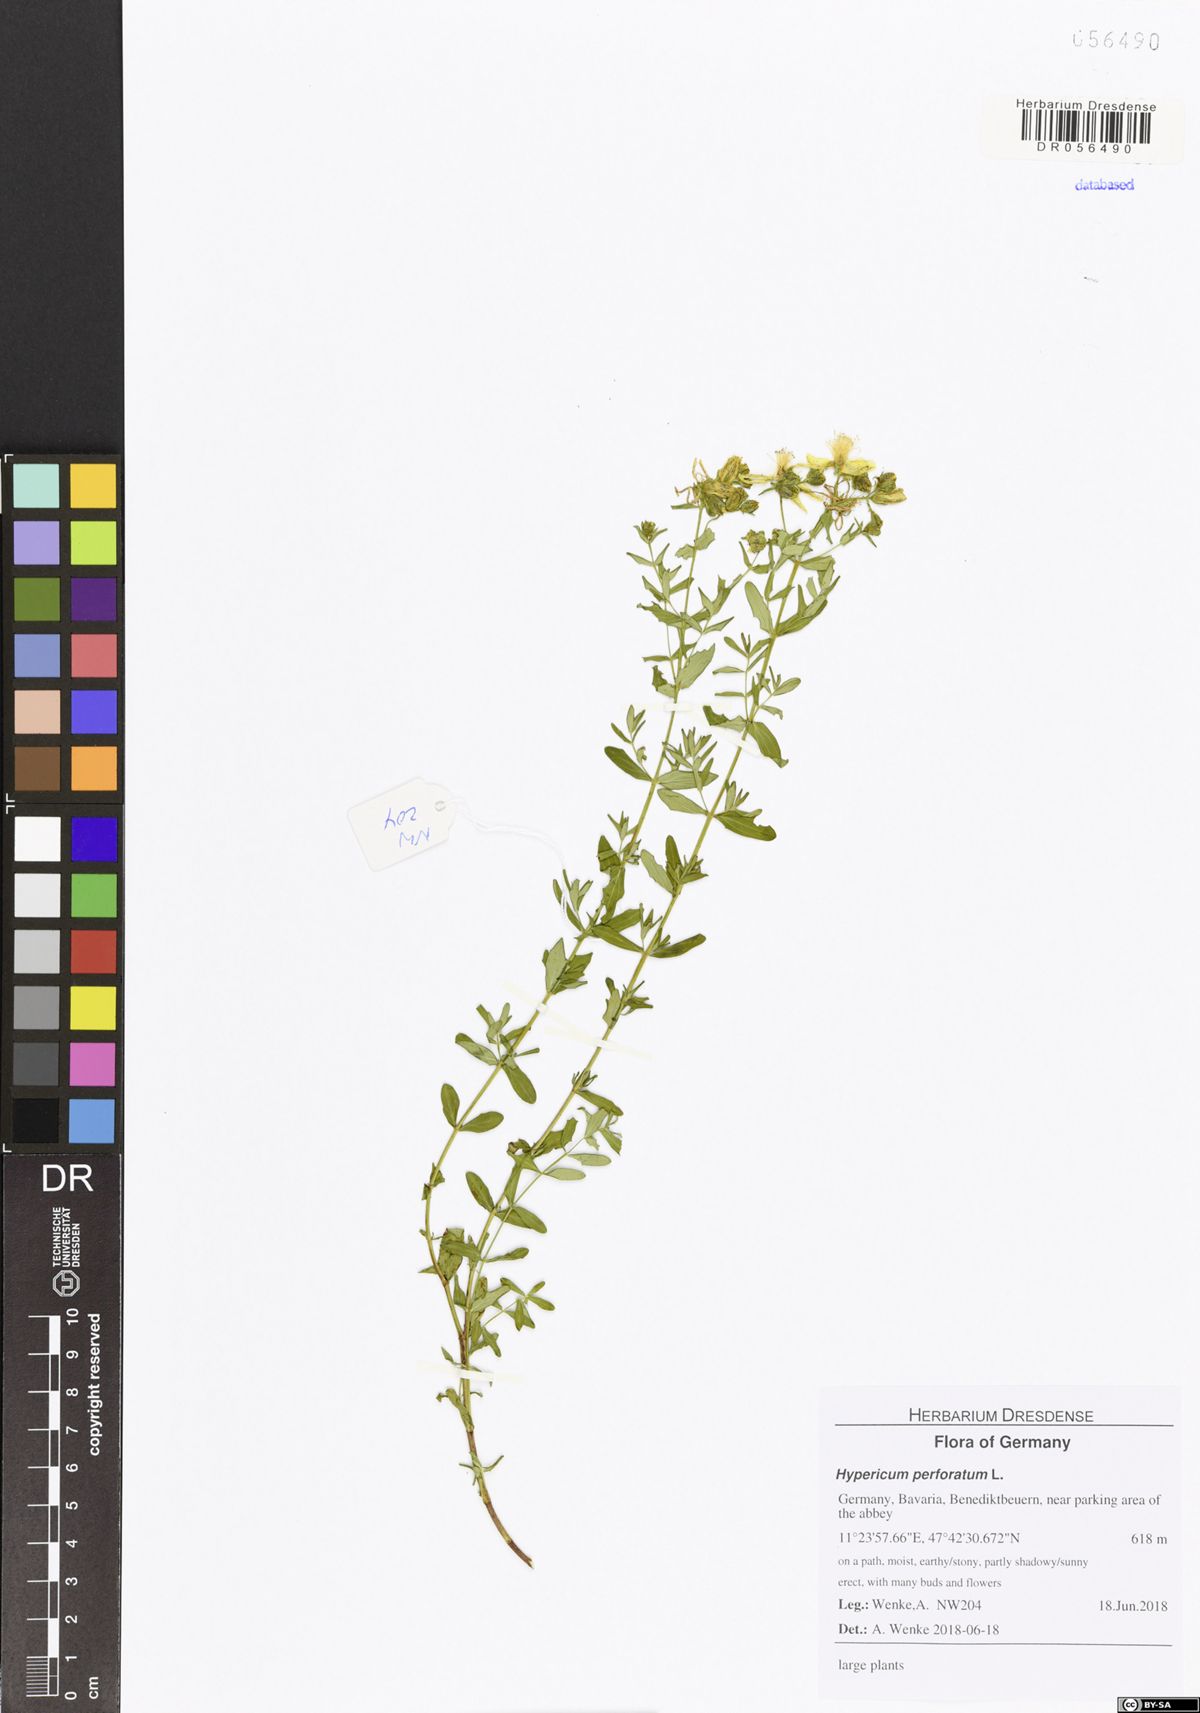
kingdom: Plantae
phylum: Tracheophyta
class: Magnoliopsida
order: Malpighiales
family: Hypericaceae
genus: Hypericum
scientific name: Hypericum perforatum
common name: Common st. johnswort
